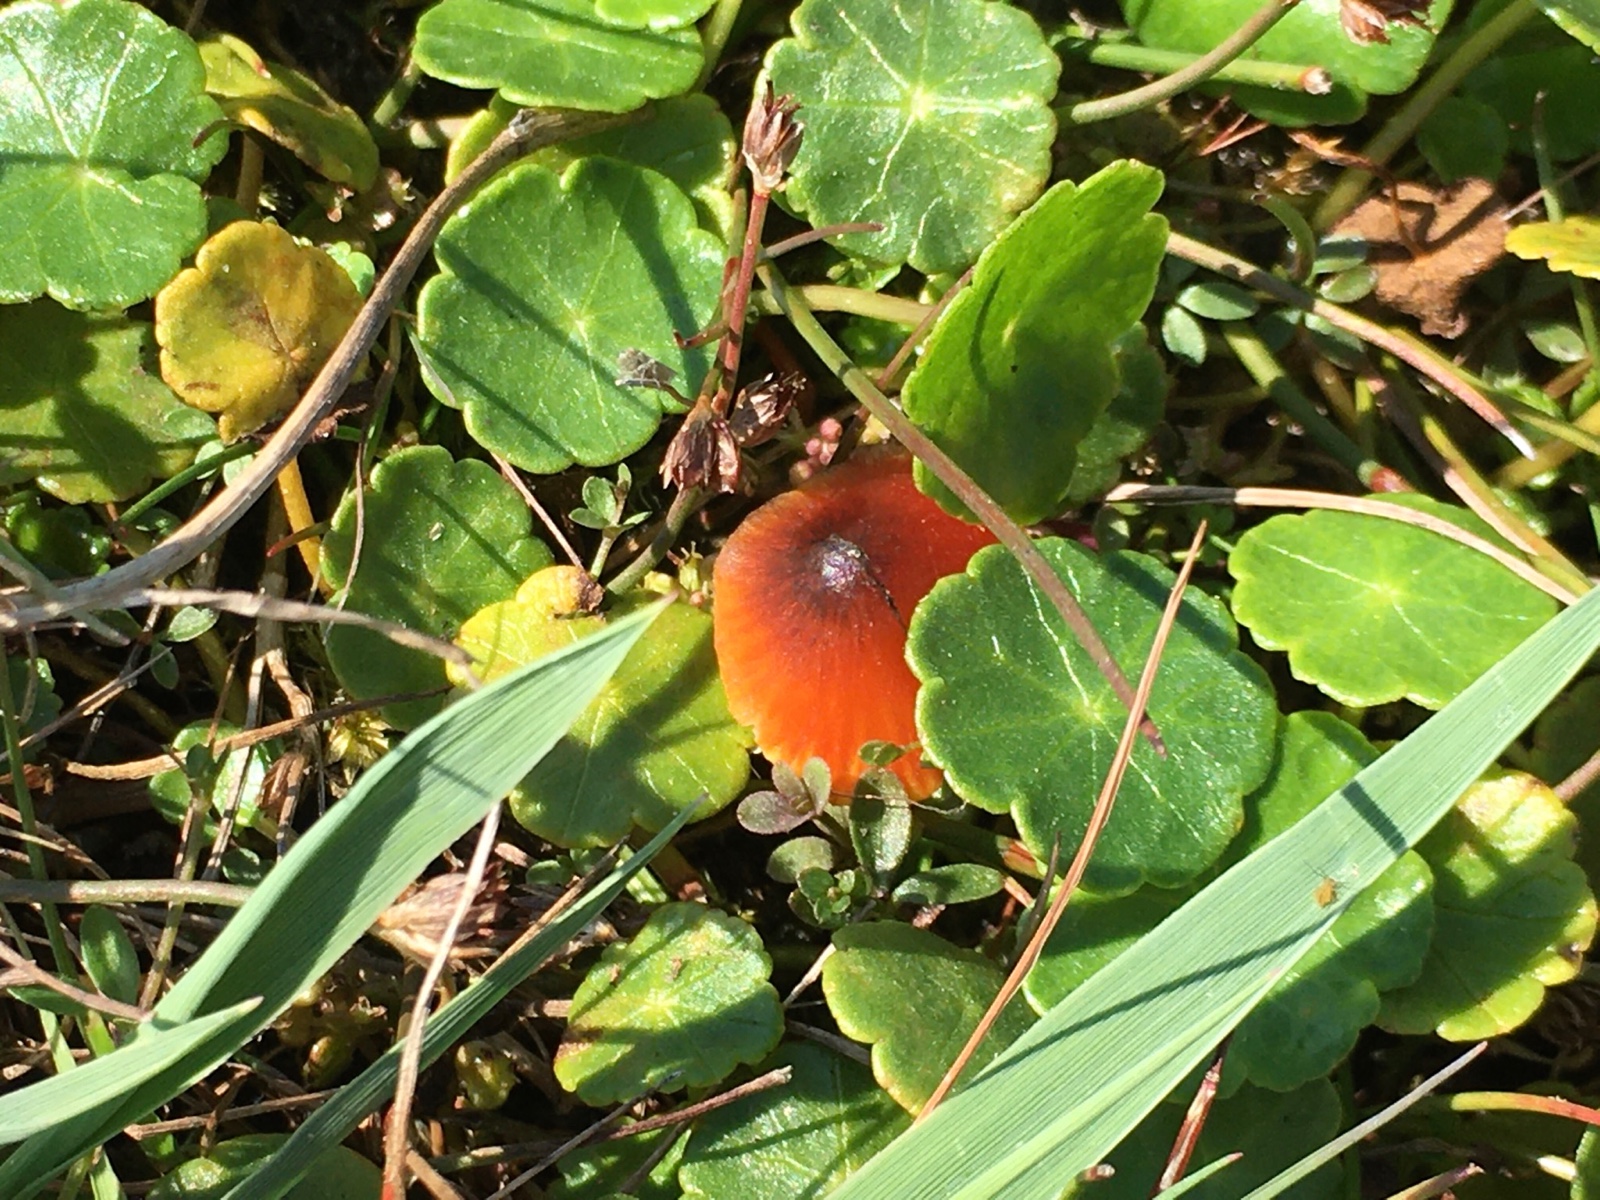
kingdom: Fungi
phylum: Basidiomycota
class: Agaricomycetes
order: Agaricales
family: Hygrophoraceae
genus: Hygrocybe
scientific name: Hygrocybe conica
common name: kegle-vokshat
